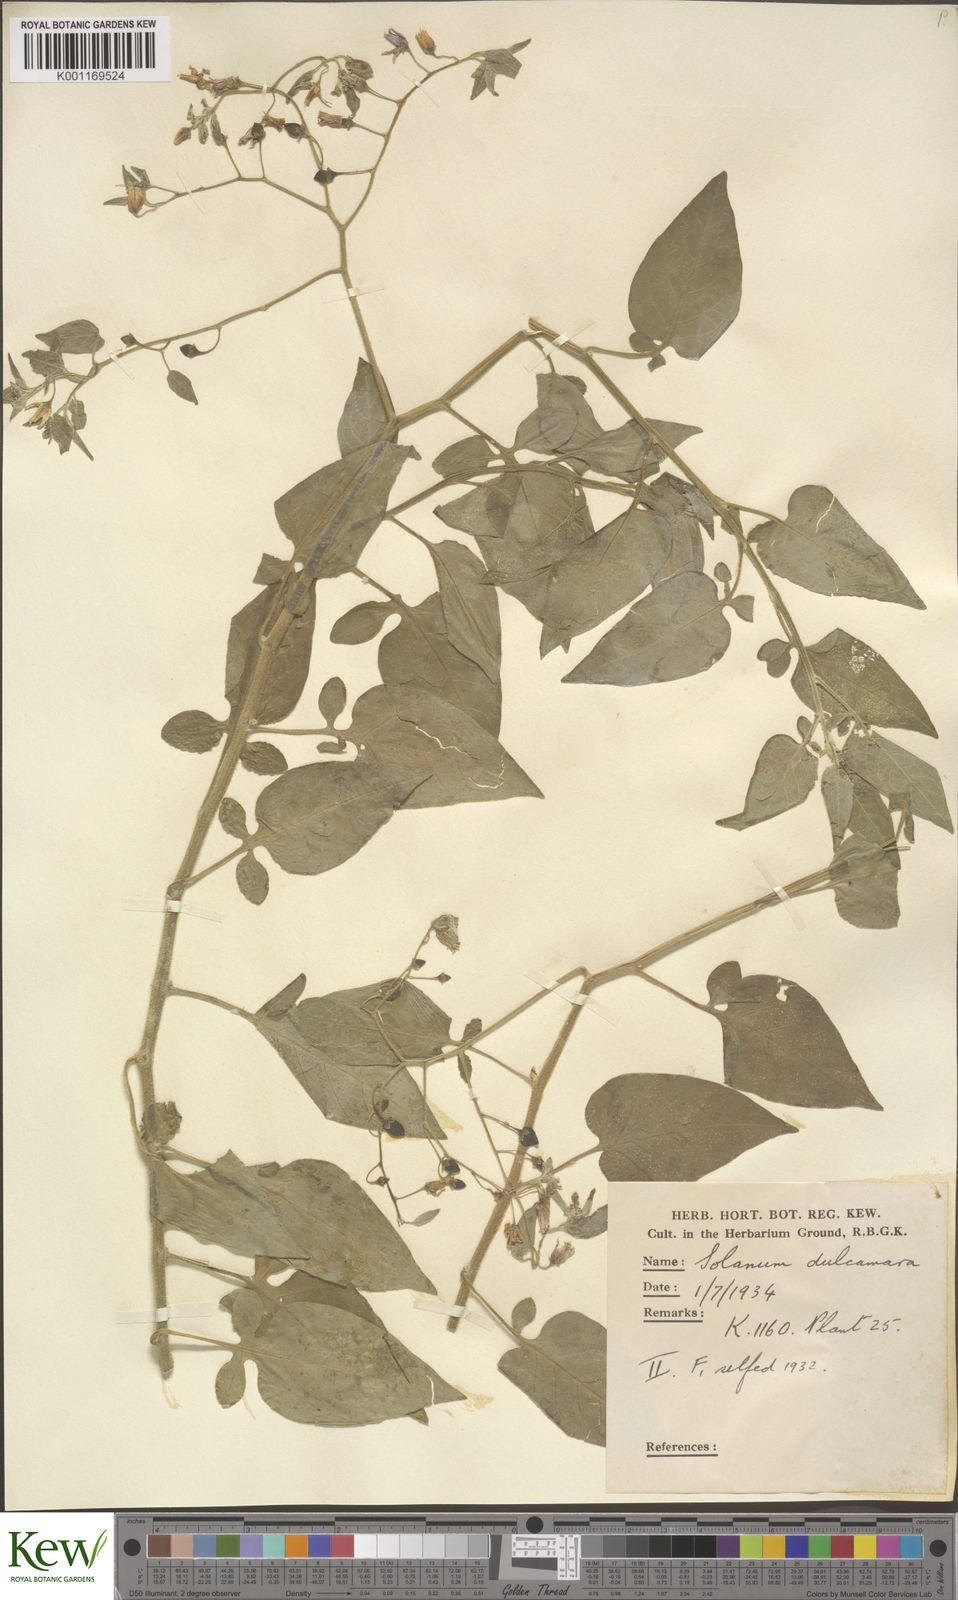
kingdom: Plantae
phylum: Tracheophyta
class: Magnoliopsida
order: Solanales
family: Solanaceae
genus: Solanum
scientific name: Solanum dulcamara
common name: Climbing nightshade
